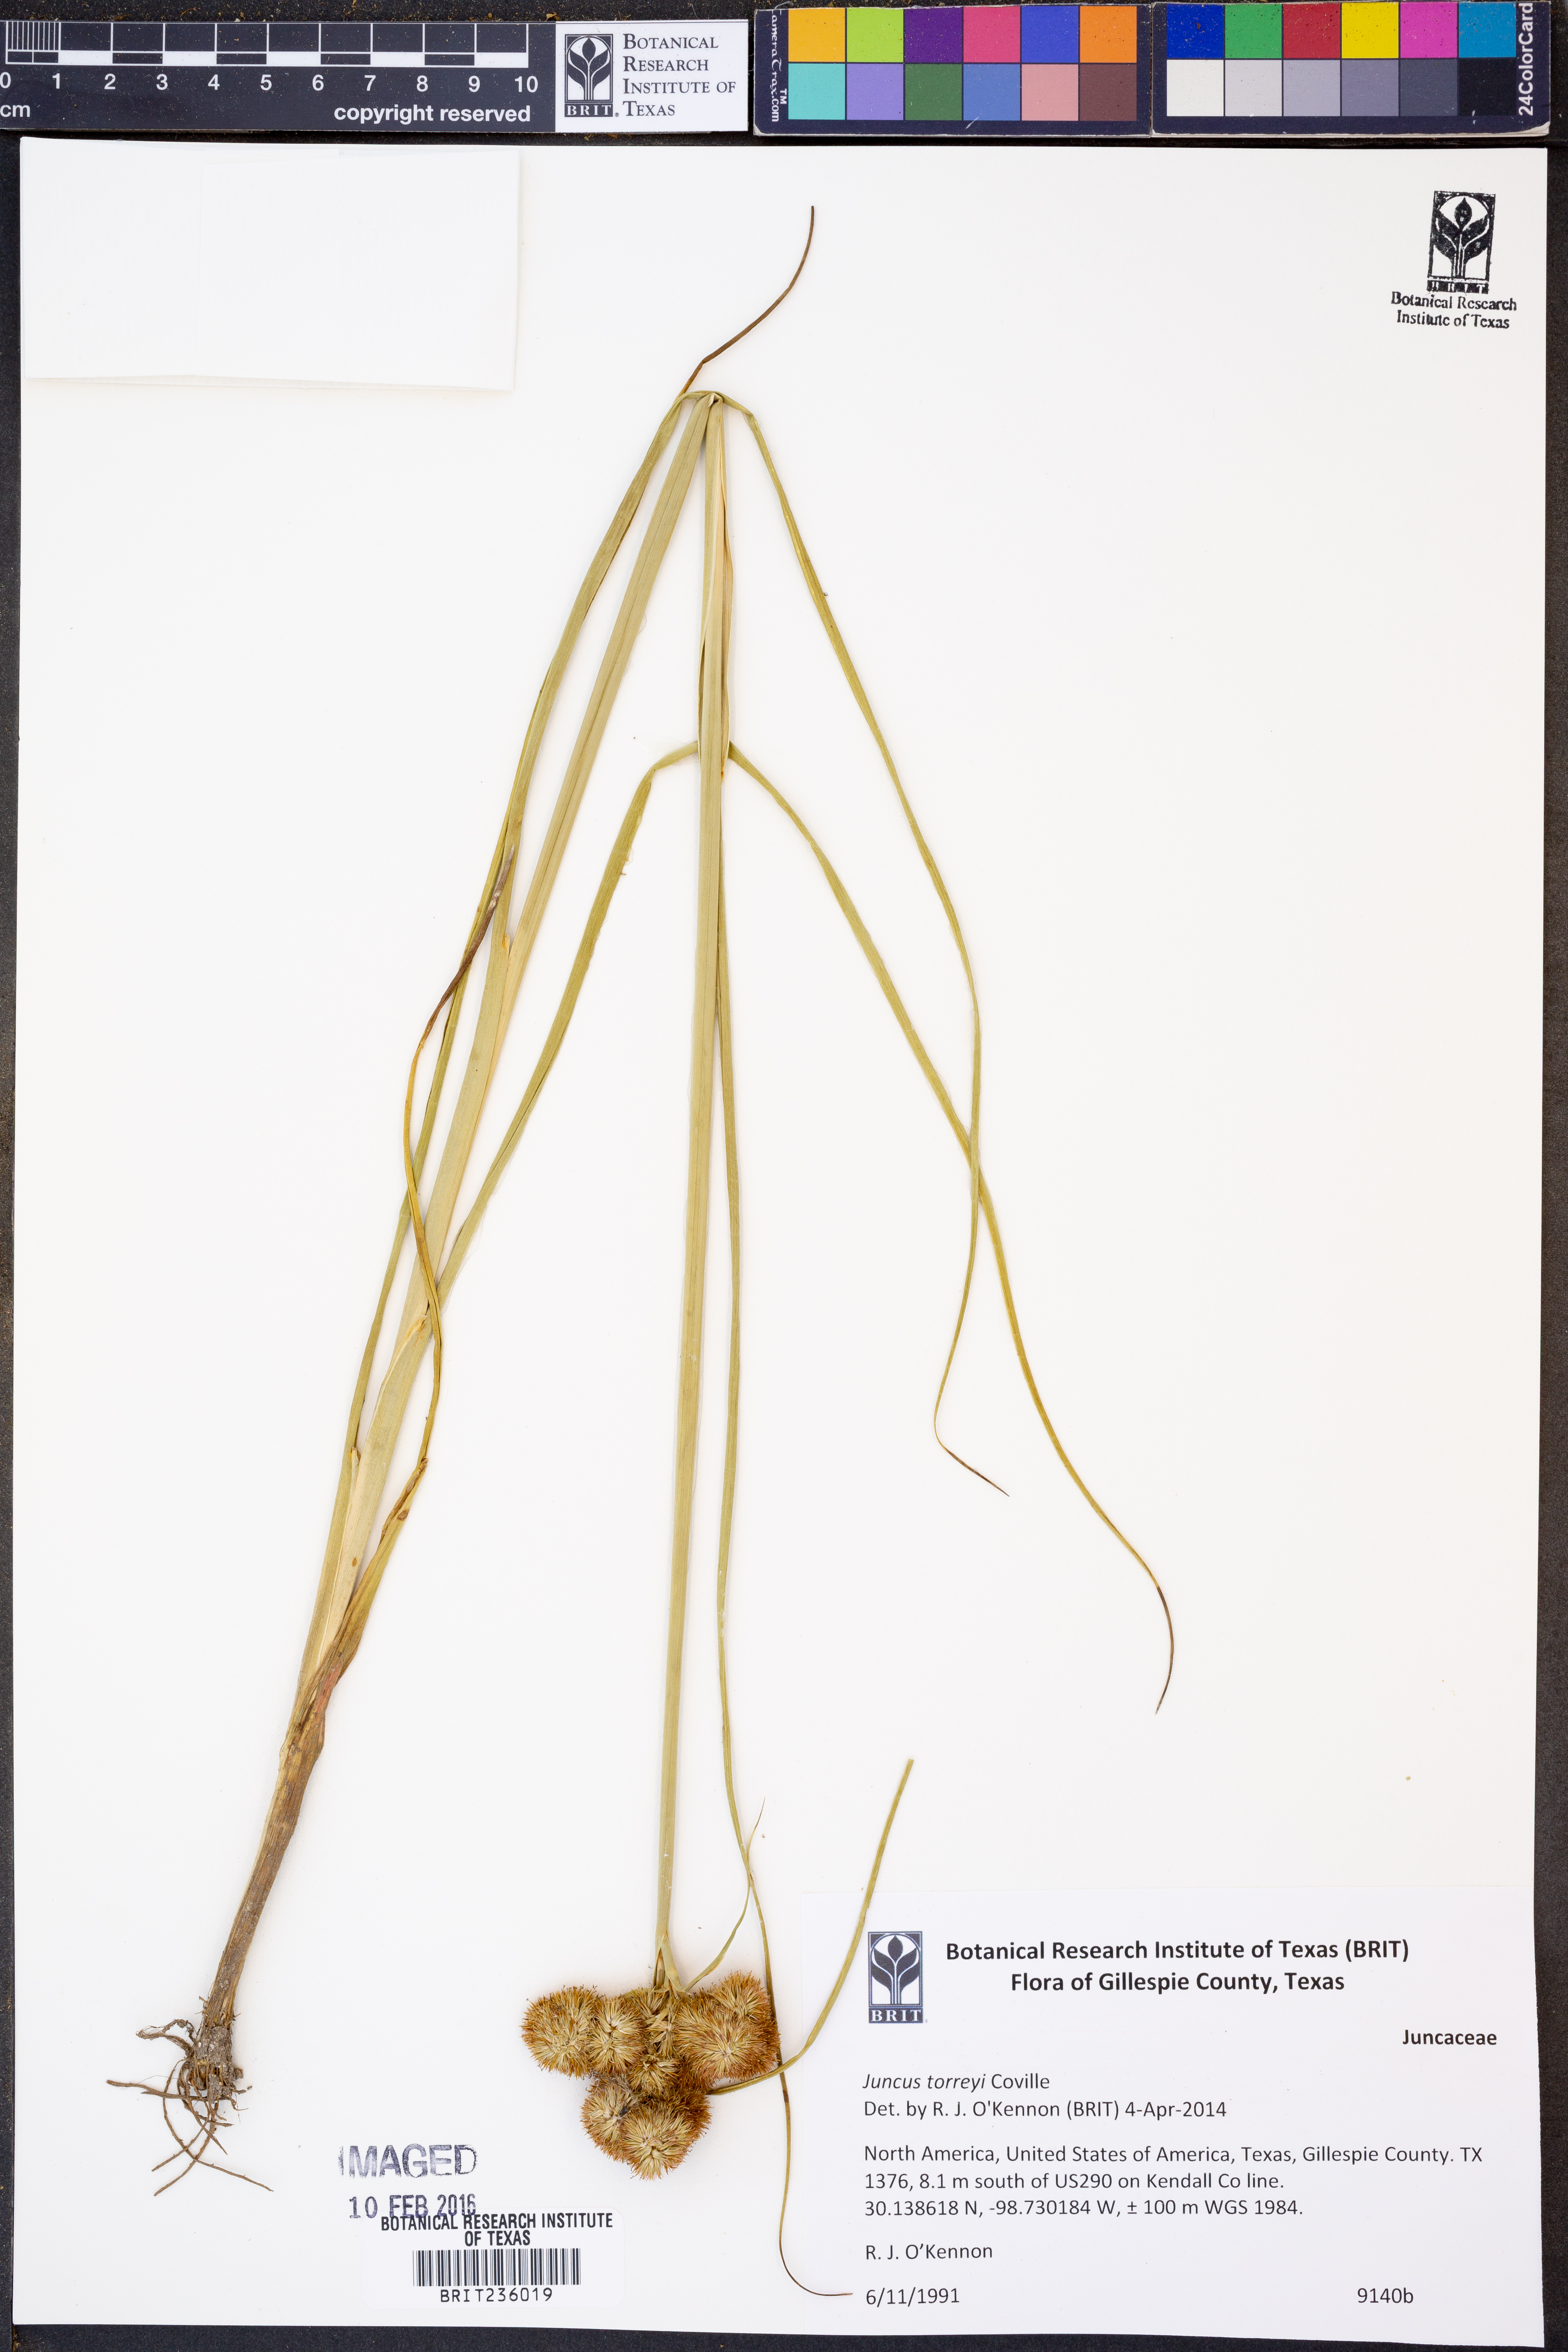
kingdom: Plantae
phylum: Tracheophyta
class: Liliopsida
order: Poales
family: Juncaceae
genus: Juncus
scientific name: Juncus torreyi
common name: Torrey's rush
